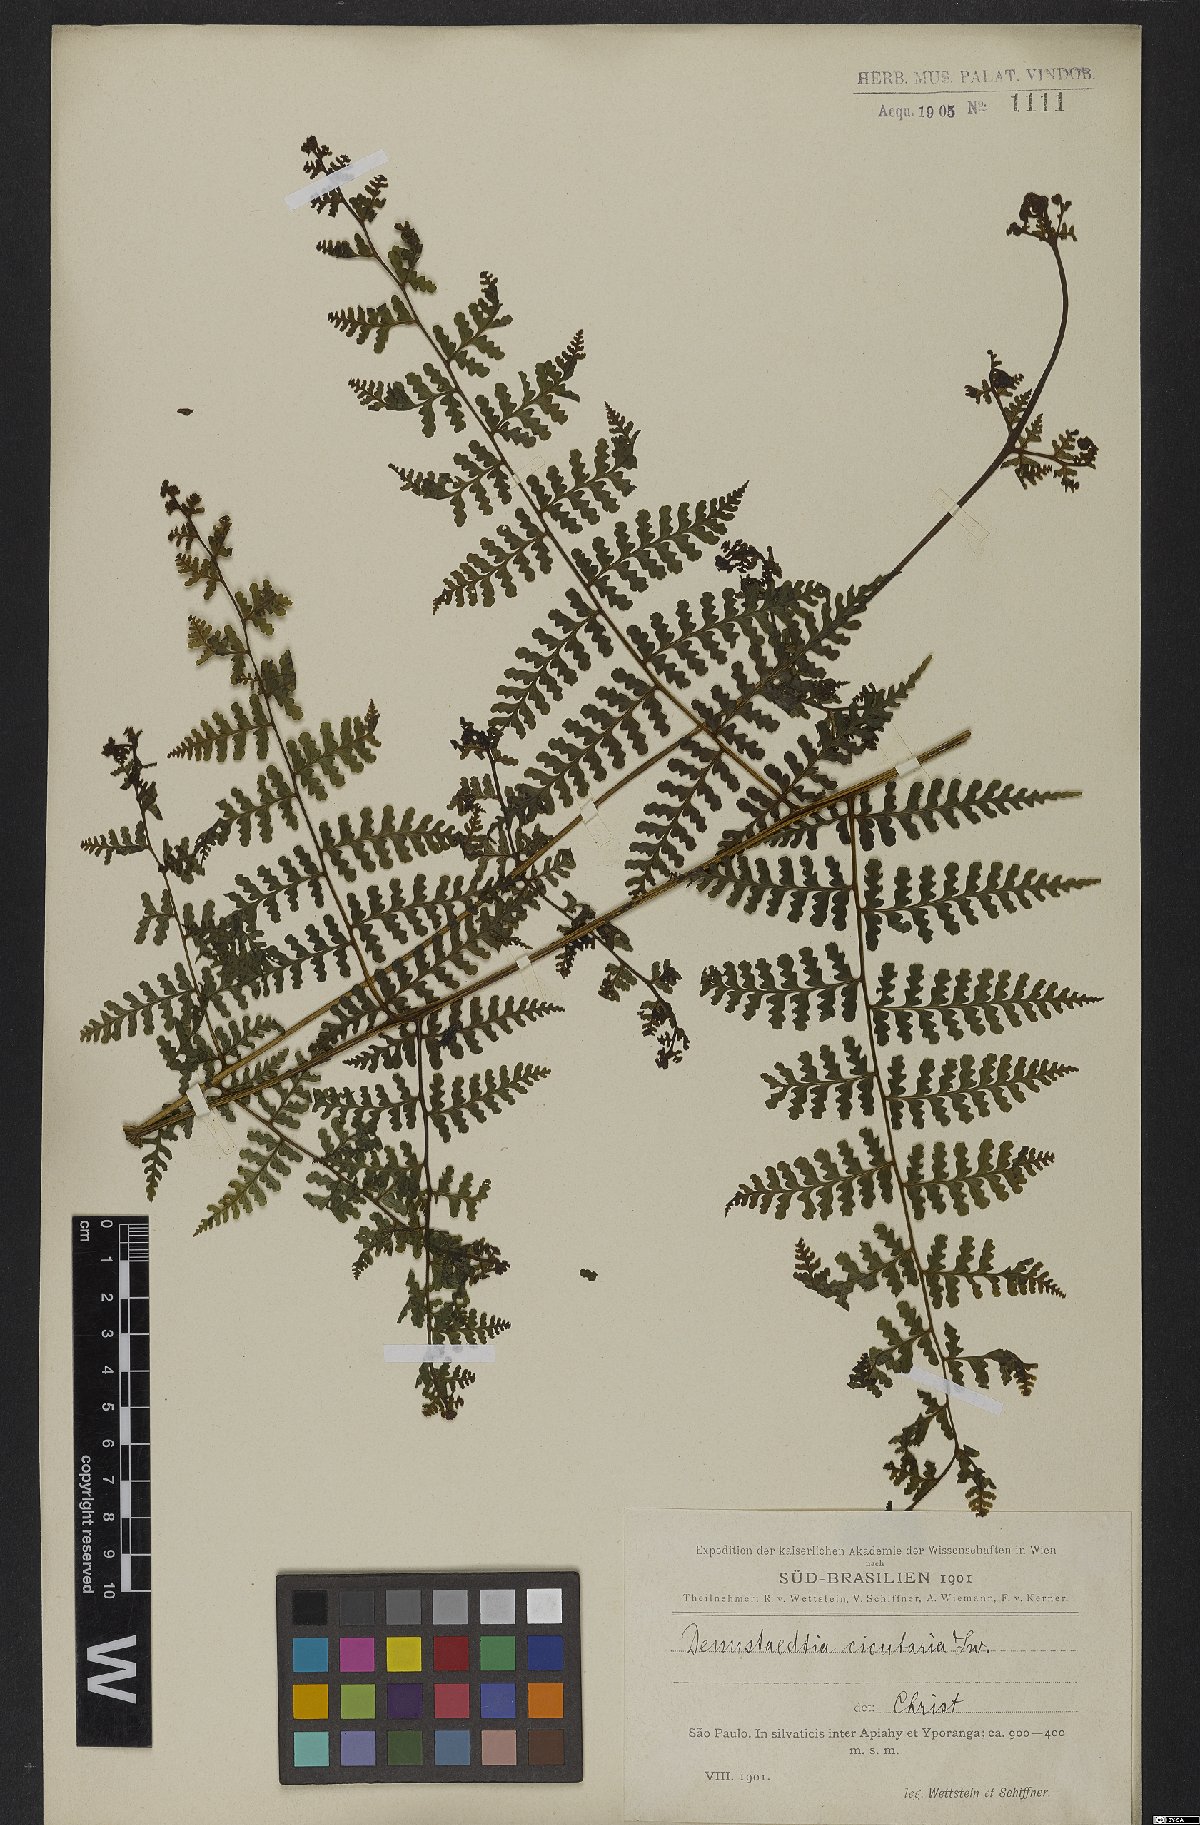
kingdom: Plantae
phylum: Tracheophyta
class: Polypodiopsida
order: Polypodiales
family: Dennstaedtiaceae
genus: Dennstaedtia
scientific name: Dennstaedtia cicutaria
